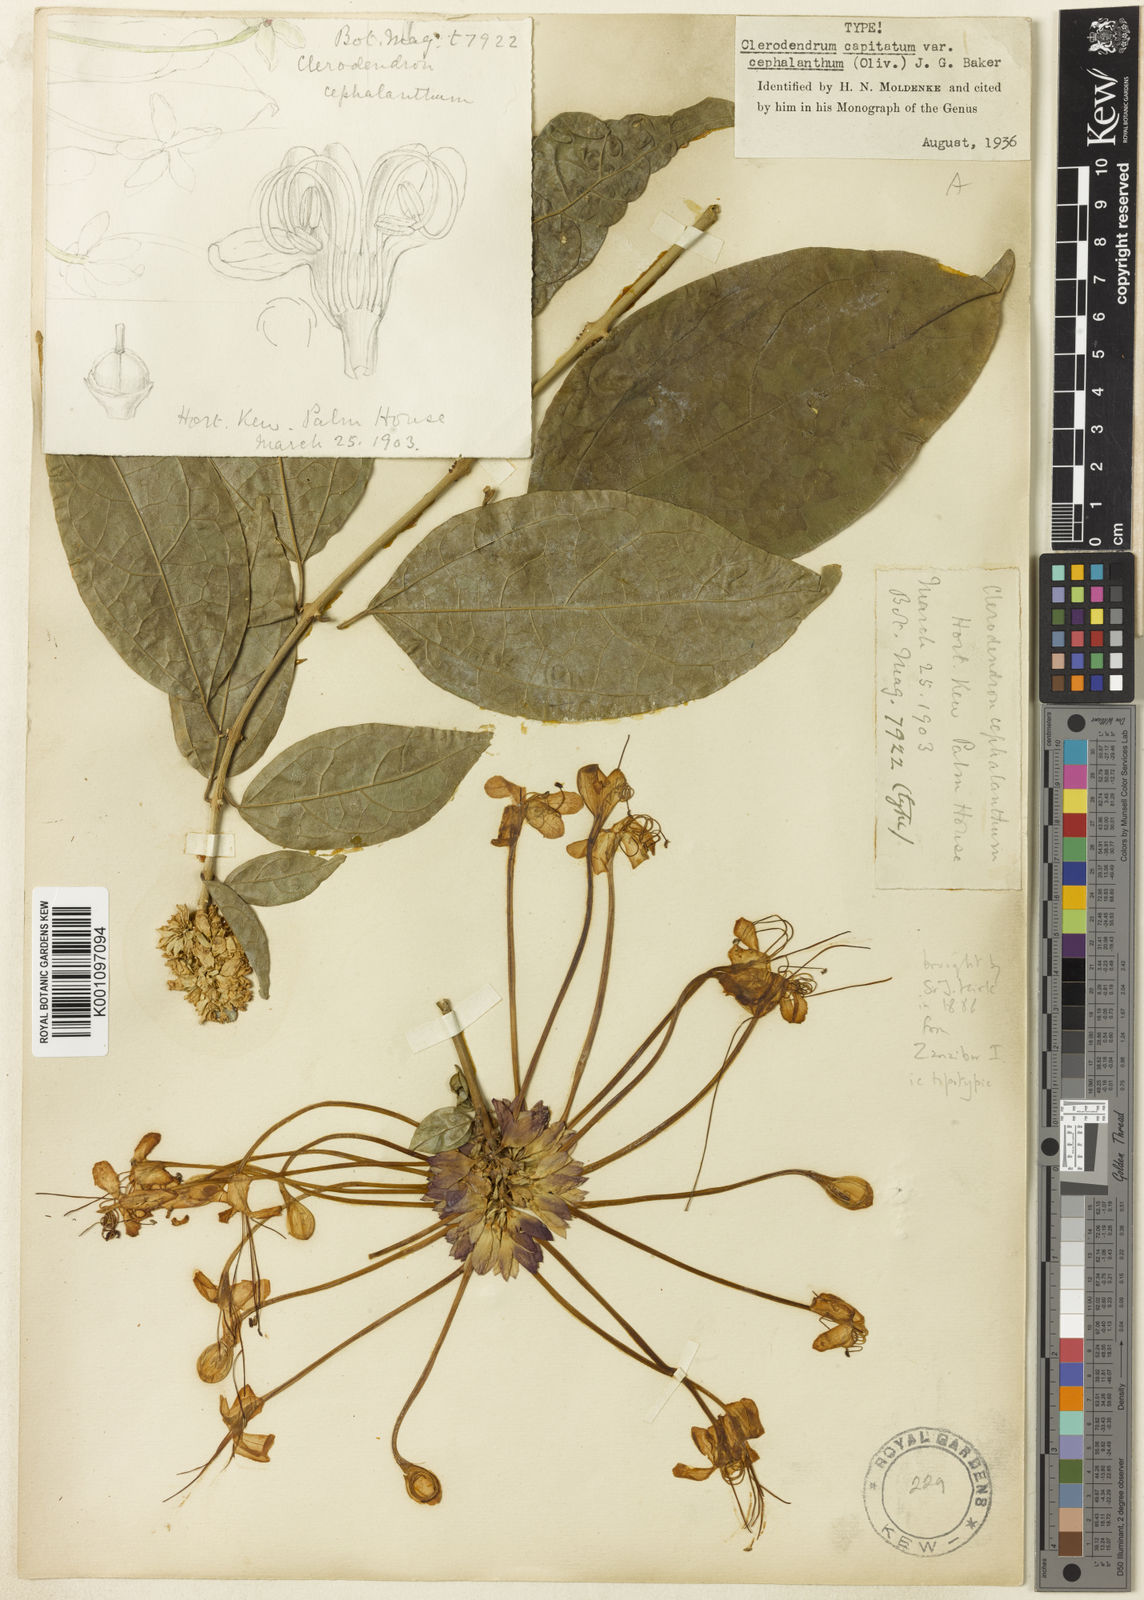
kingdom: Plantae
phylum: Tracheophyta
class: Magnoliopsida
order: Lamiales
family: Lamiaceae
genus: Clerodendrum
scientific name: Clerodendrum cephalanthum
